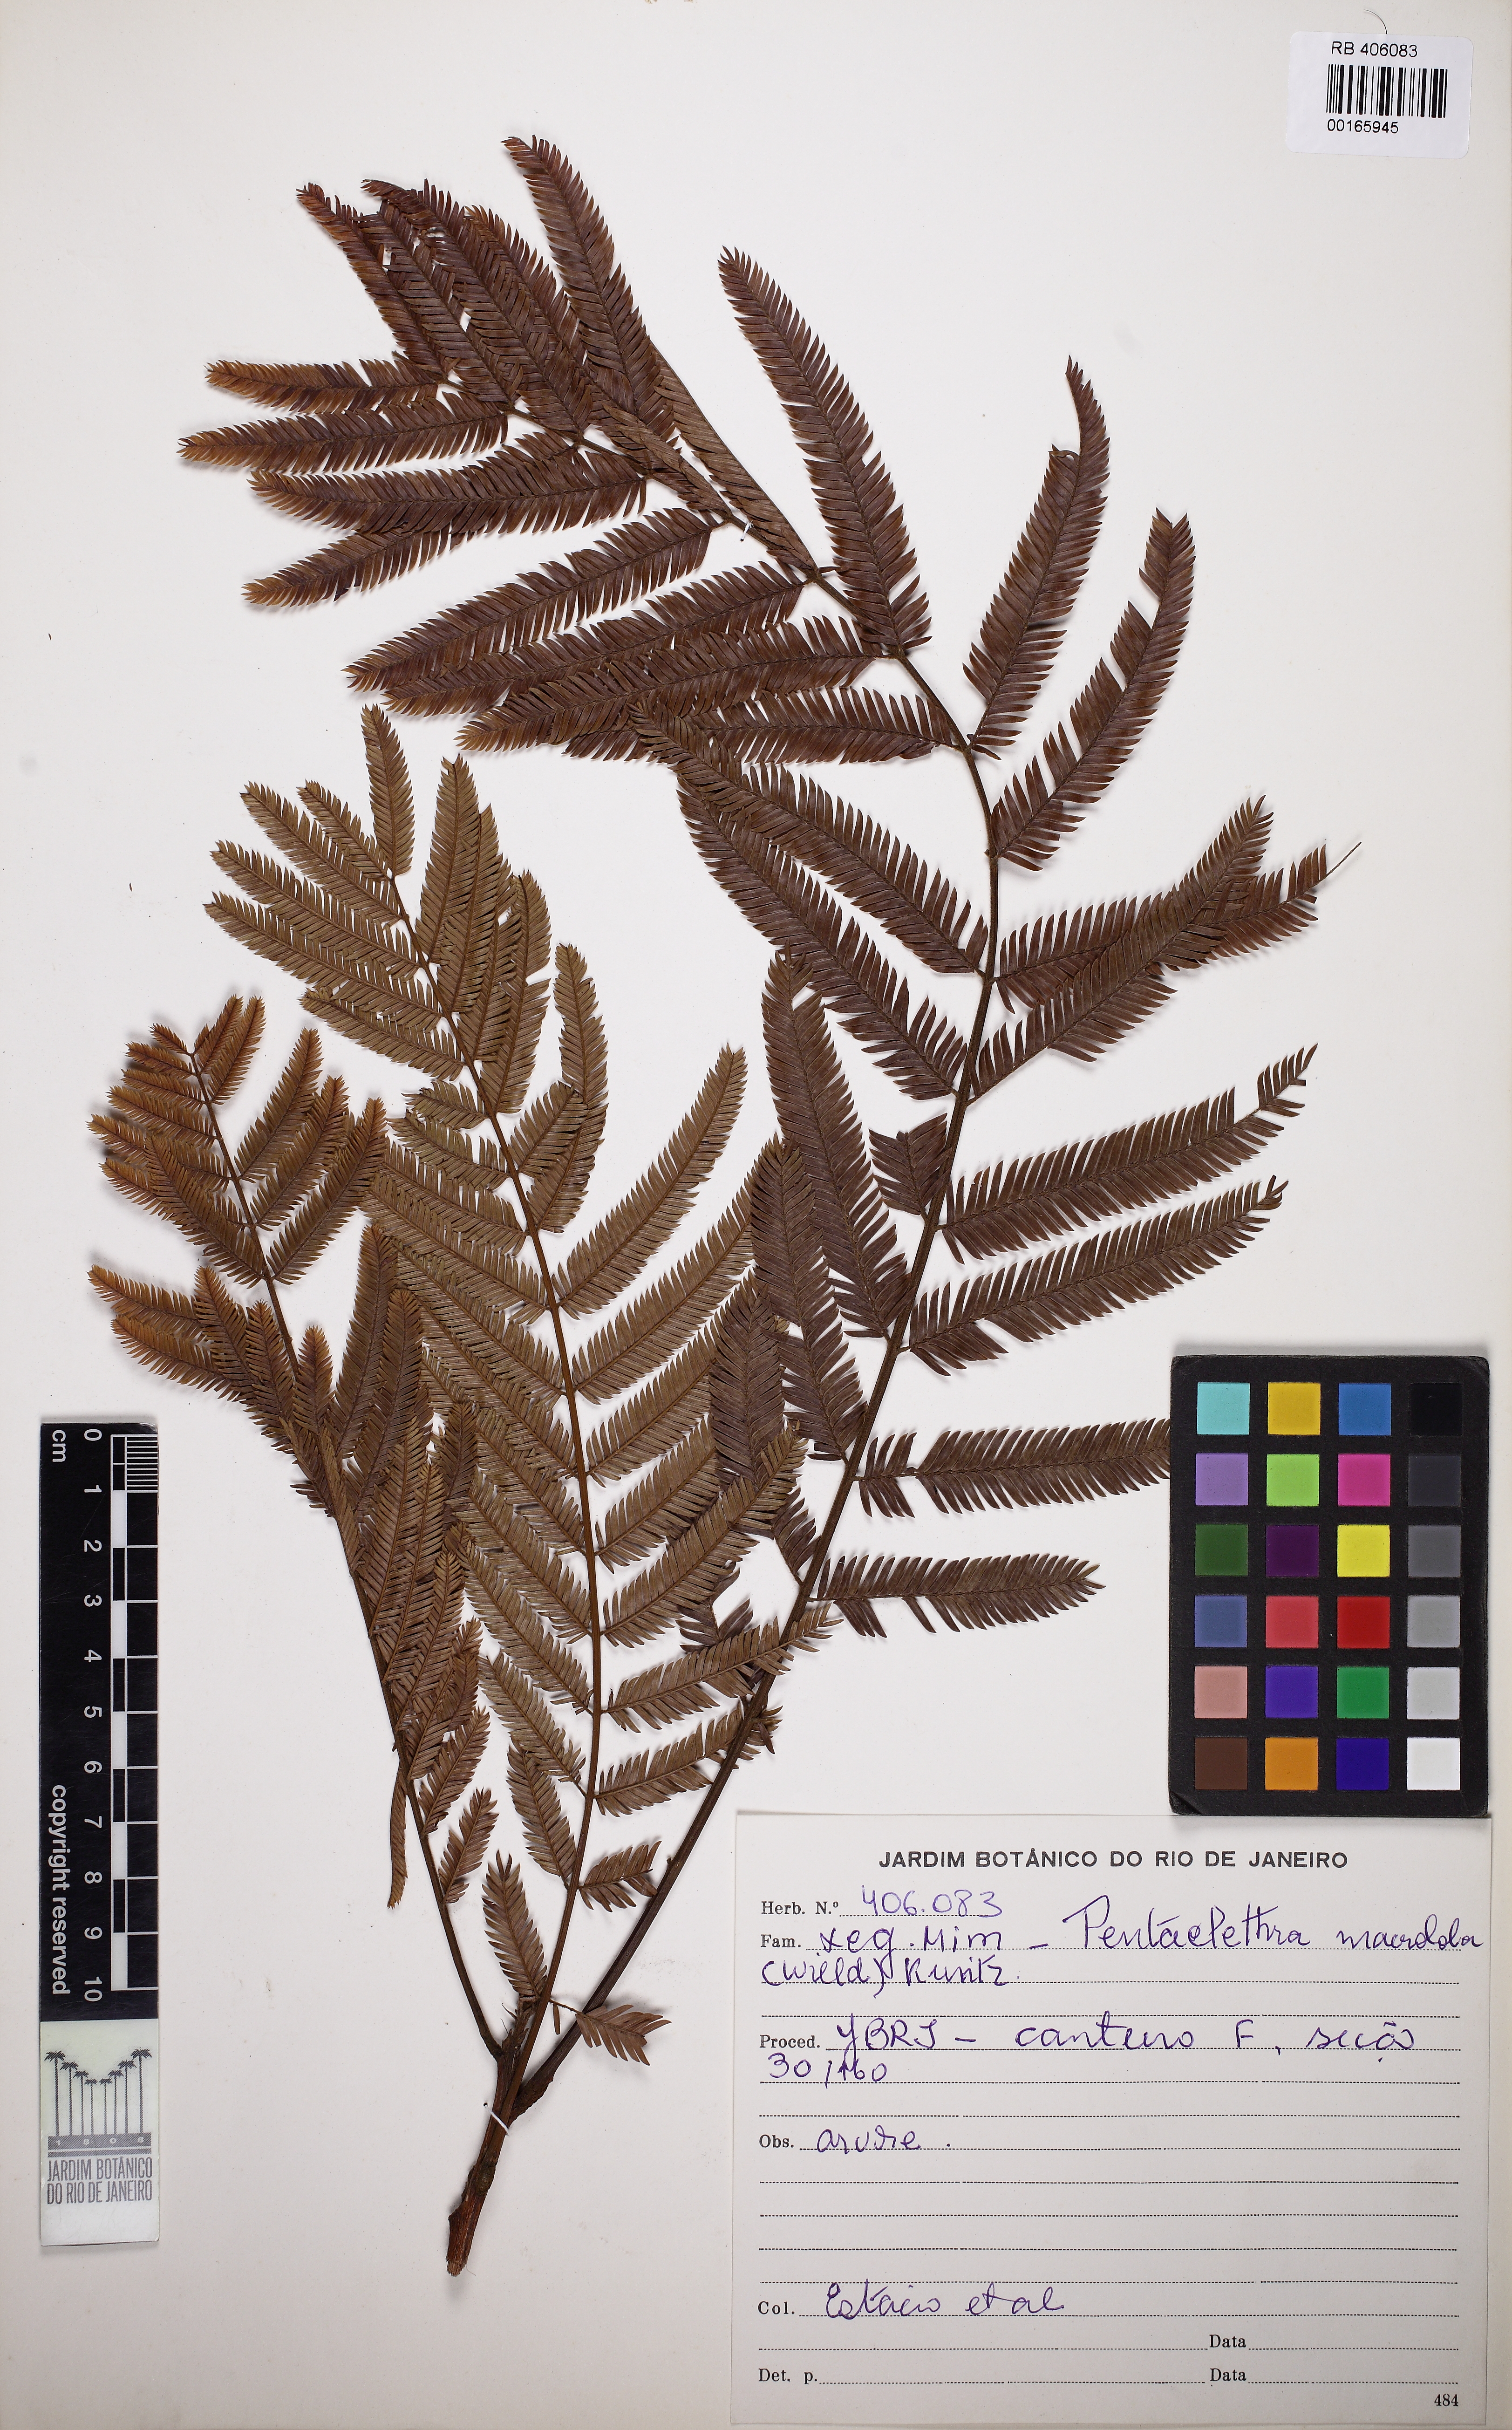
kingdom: Plantae
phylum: Tracheophyta
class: Magnoliopsida
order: Fabales
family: Fabaceae
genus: Pentaclethra
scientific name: Pentaclethra macroloba
